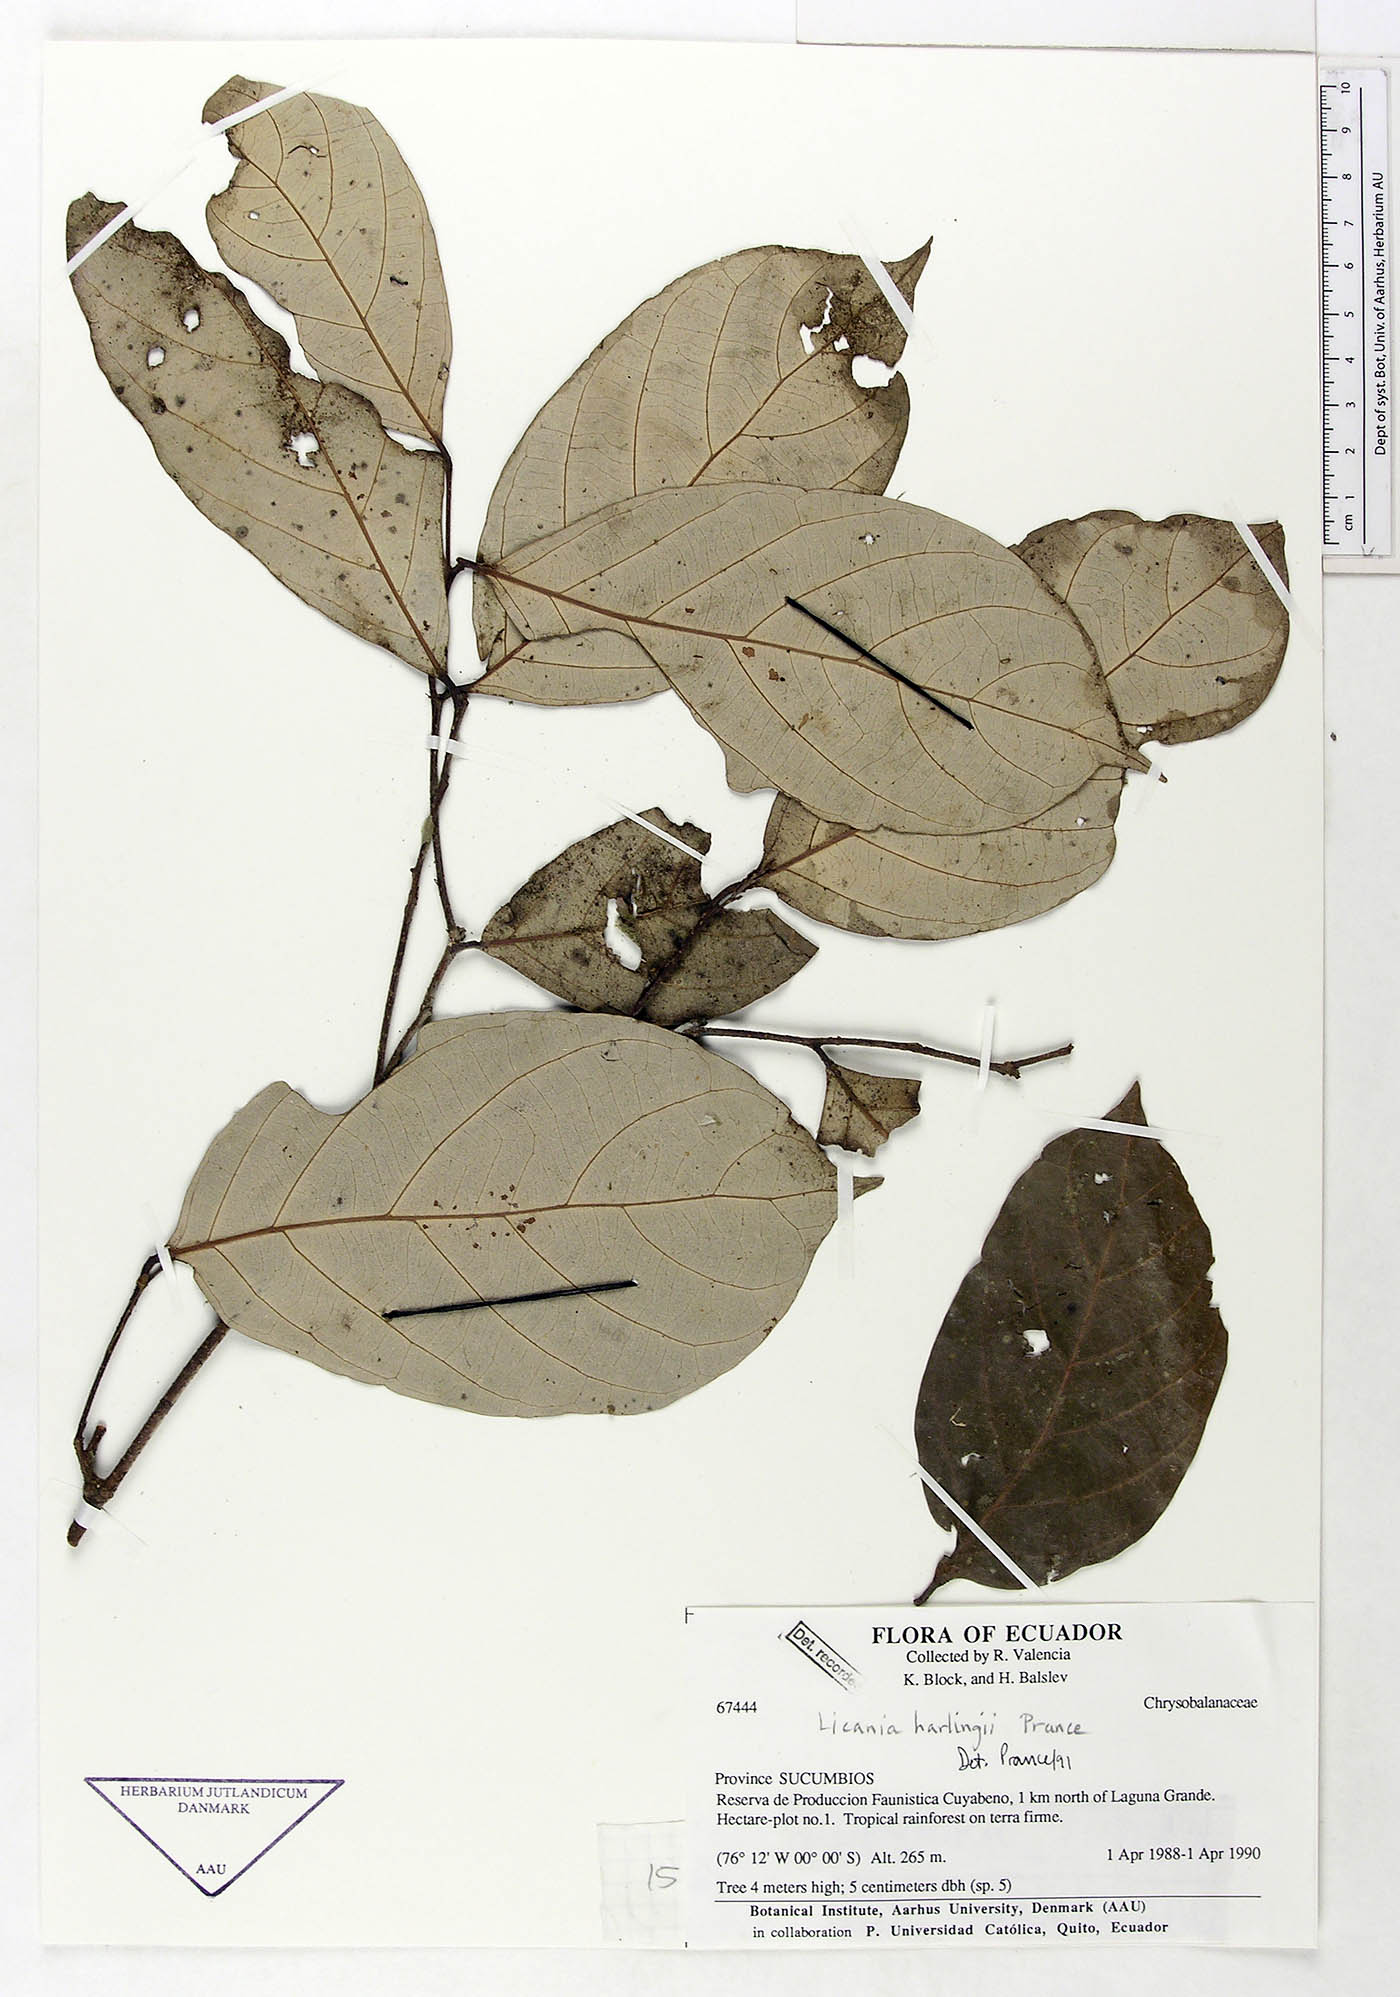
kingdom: Plantae
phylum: Tracheophyta
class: Magnoliopsida
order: Malpighiales
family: Chrysobalanaceae
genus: Licania
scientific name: Licania harlingii
